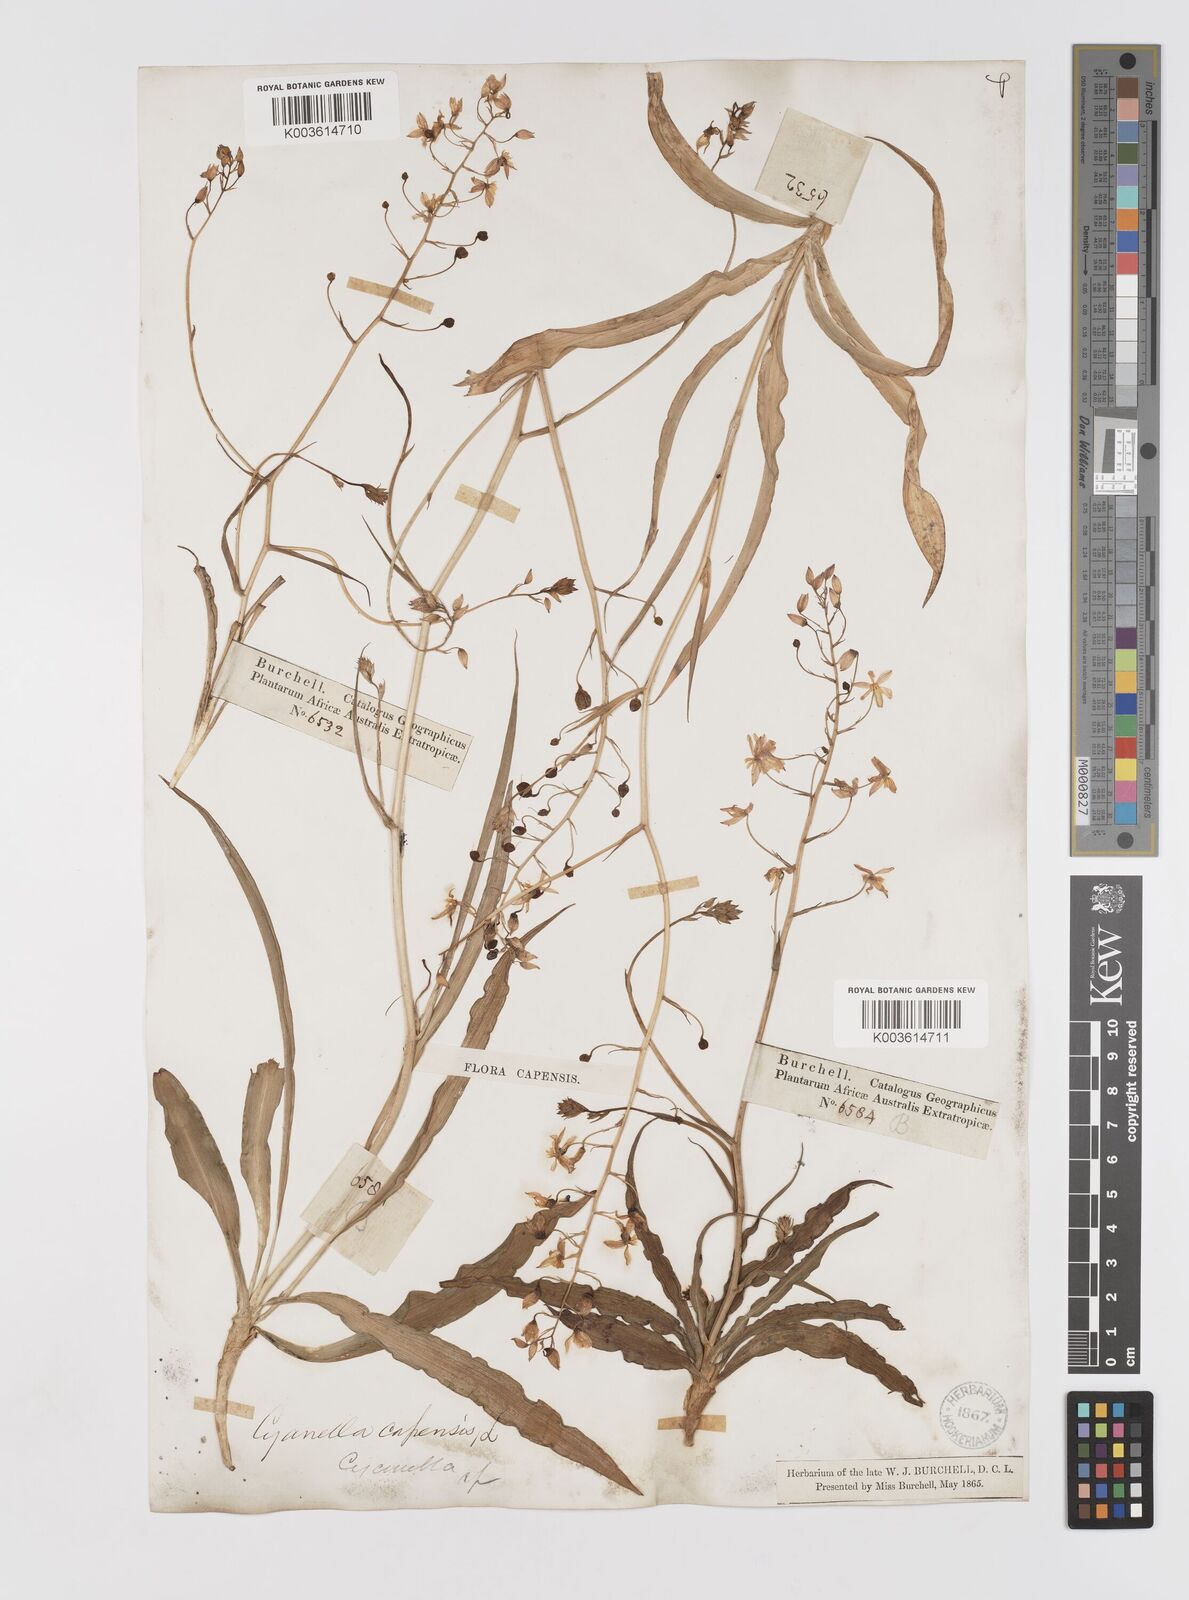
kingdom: Plantae
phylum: Tracheophyta
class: Liliopsida
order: Asparagales
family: Tecophilaeaceae
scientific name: Tecophilaeaceae
